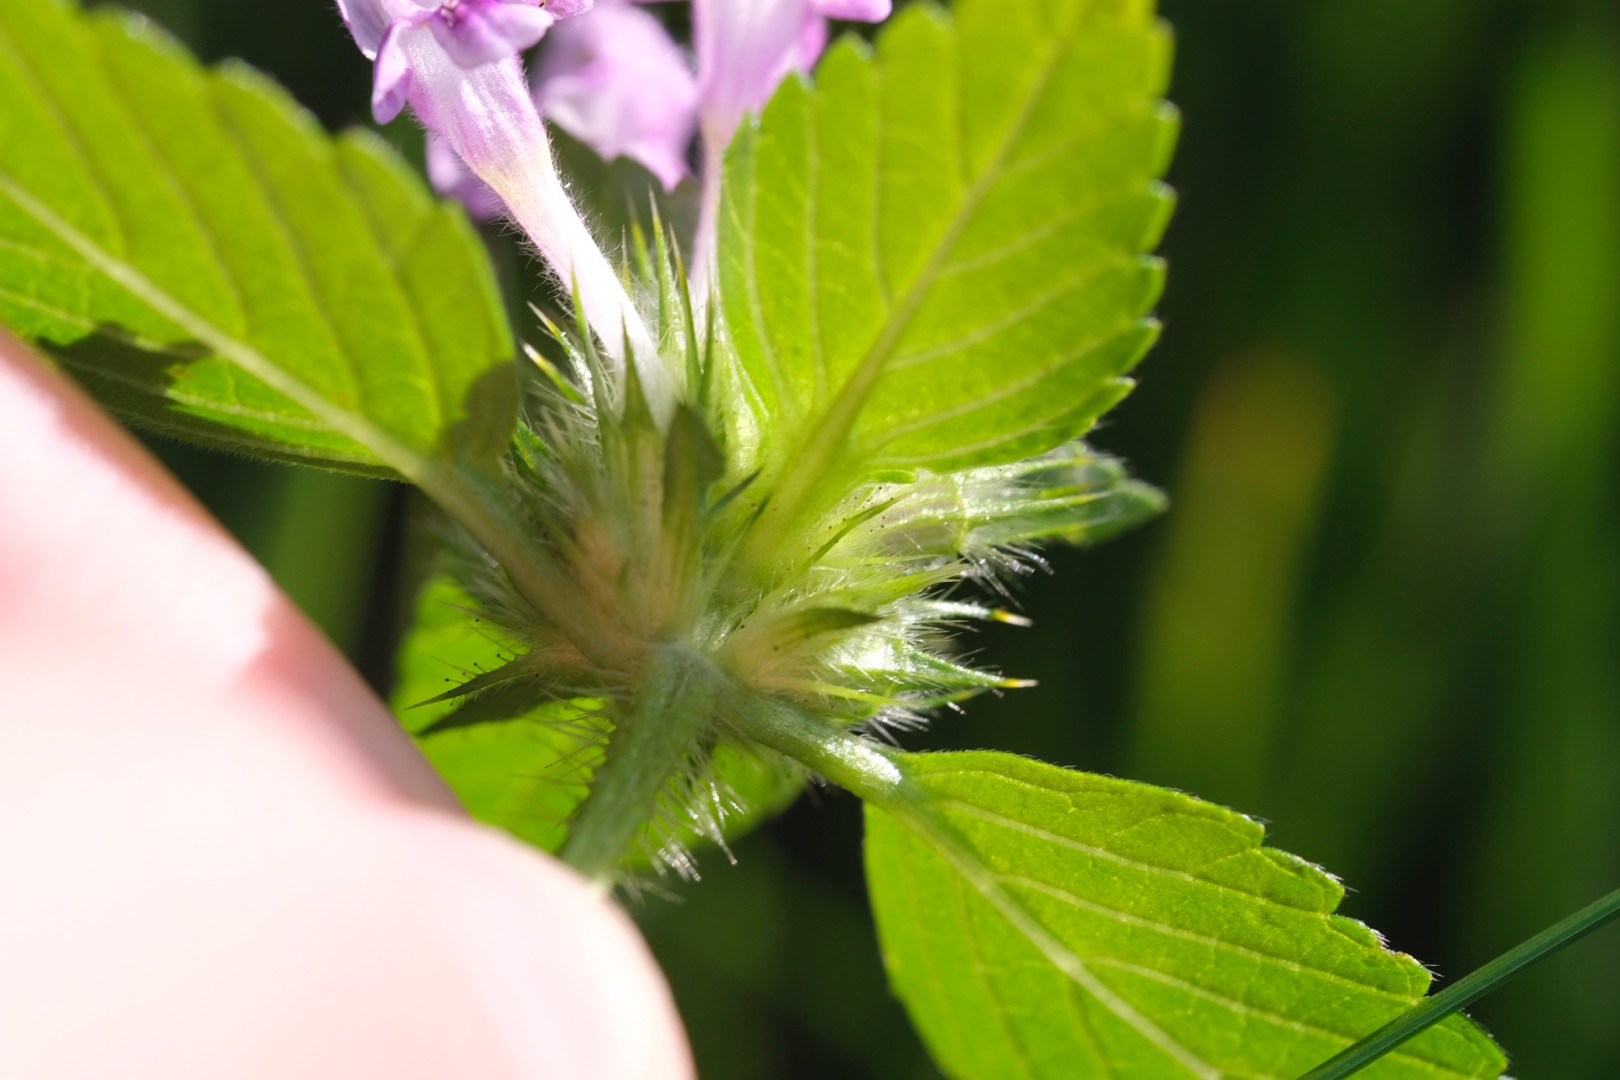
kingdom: Plantae
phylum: Tracheophyta
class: Magnoliopsida
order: Lamiales
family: Lamiaceae
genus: Galeopsis
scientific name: Galeopsis tetrahit
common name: Almindelig hanekro
